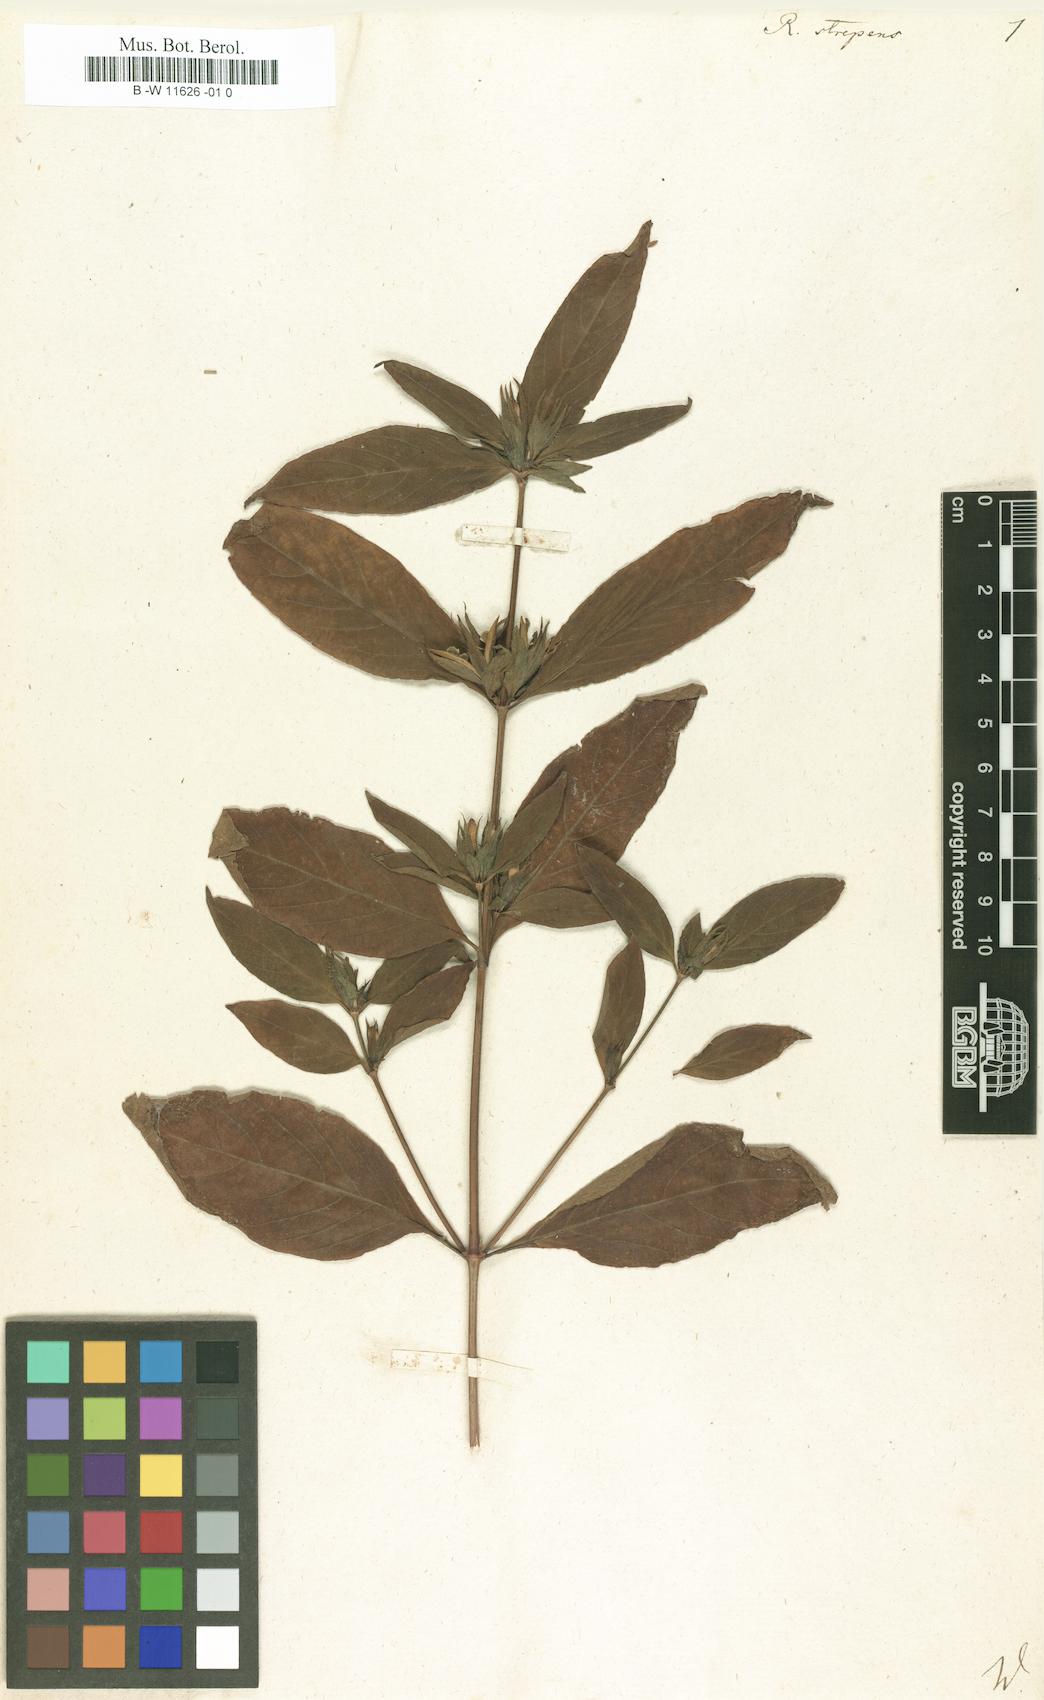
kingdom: Plantae
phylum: Tracheophyta
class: Magnoliopsida
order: Lamiales
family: Acanthaceae
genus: Ruellia
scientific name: Ruellia strepens
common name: Limestone wild petunia
